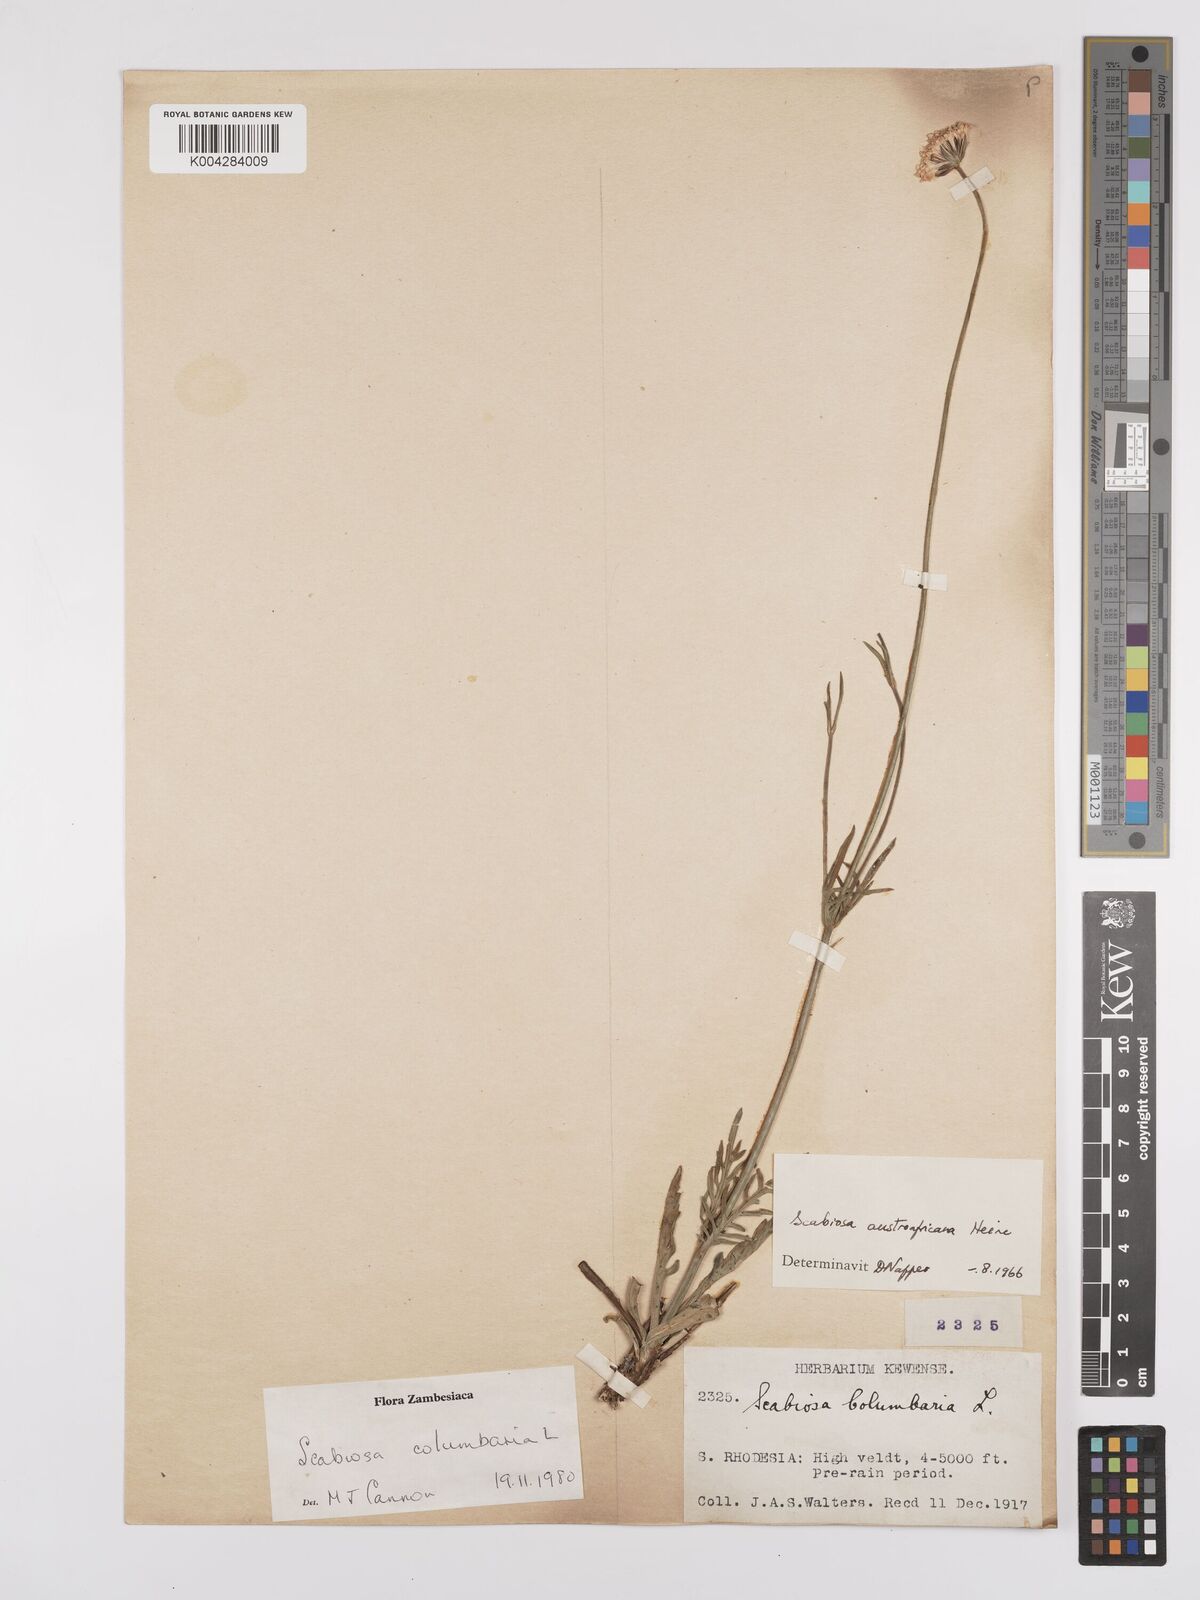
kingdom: Plantae
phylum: Tracheophyta
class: Magnoliopsida
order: Dipsacales
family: Caprifoliaceae
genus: Scabiosa
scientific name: Scabiosa austroafricana
